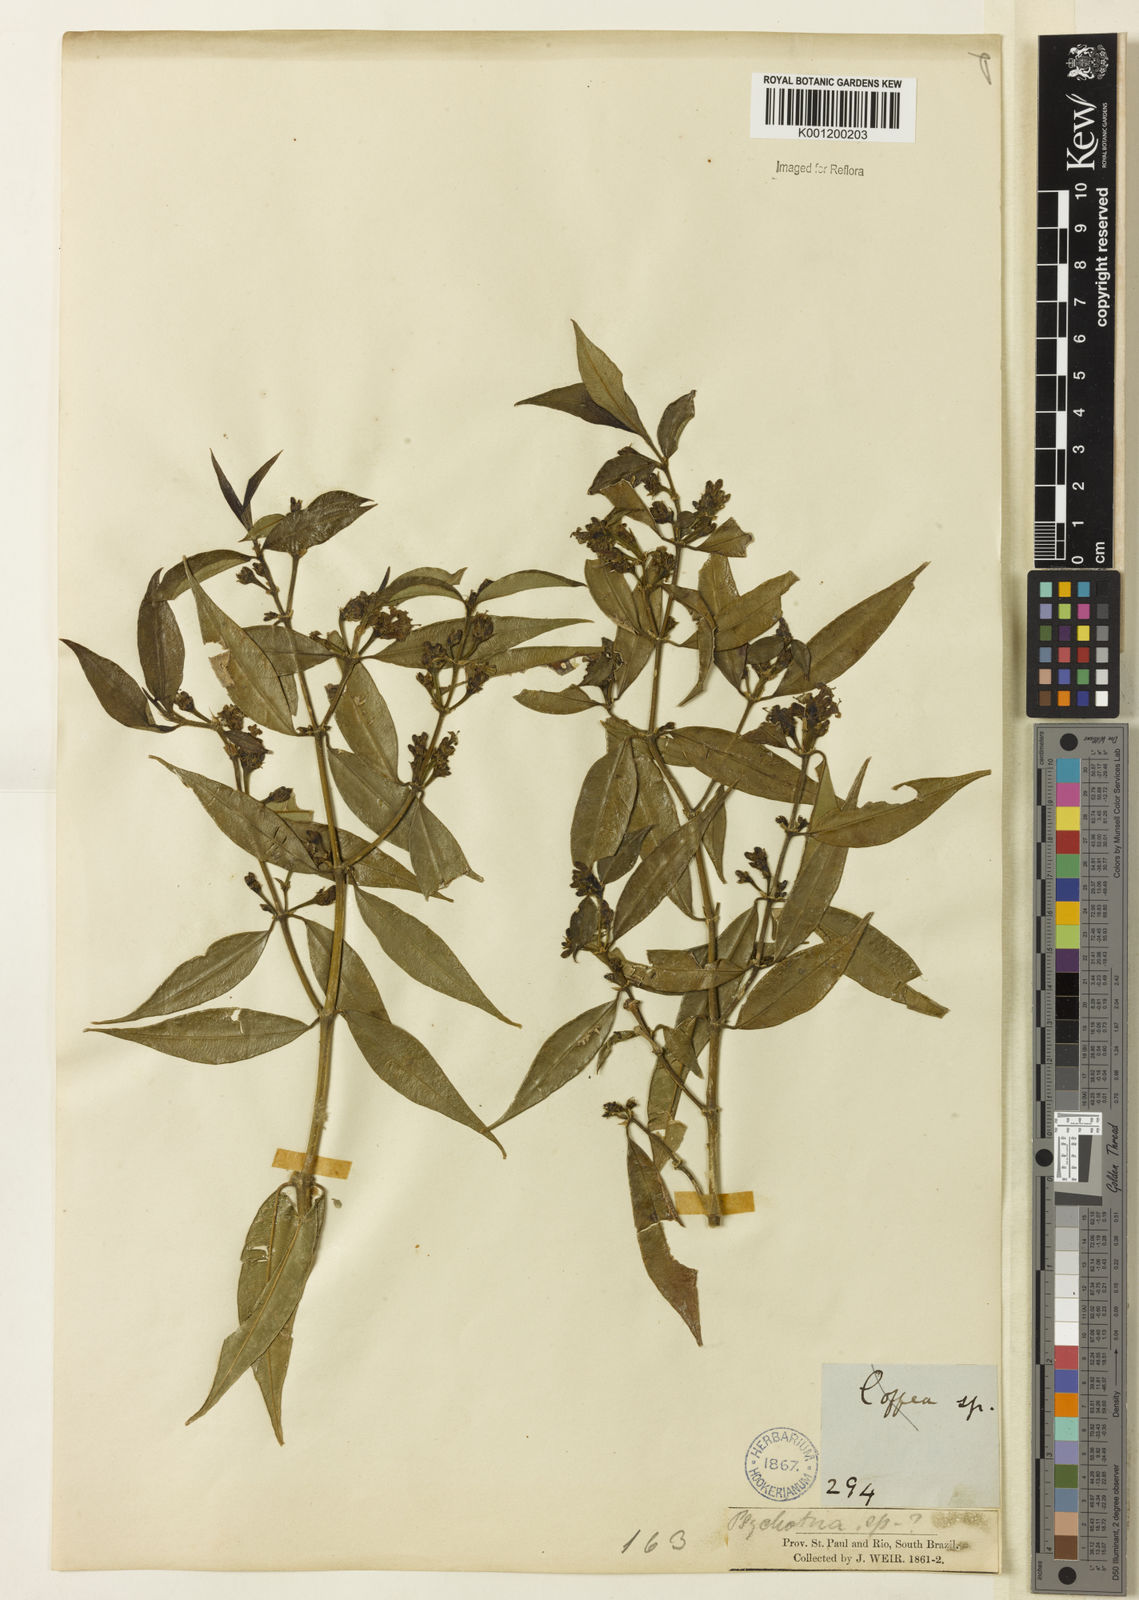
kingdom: Plantae
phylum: Tracheophyta
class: Magnoliopsida
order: Gentianales
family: Rubiaceae
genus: Rudgea
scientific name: Rudgea sessilis
